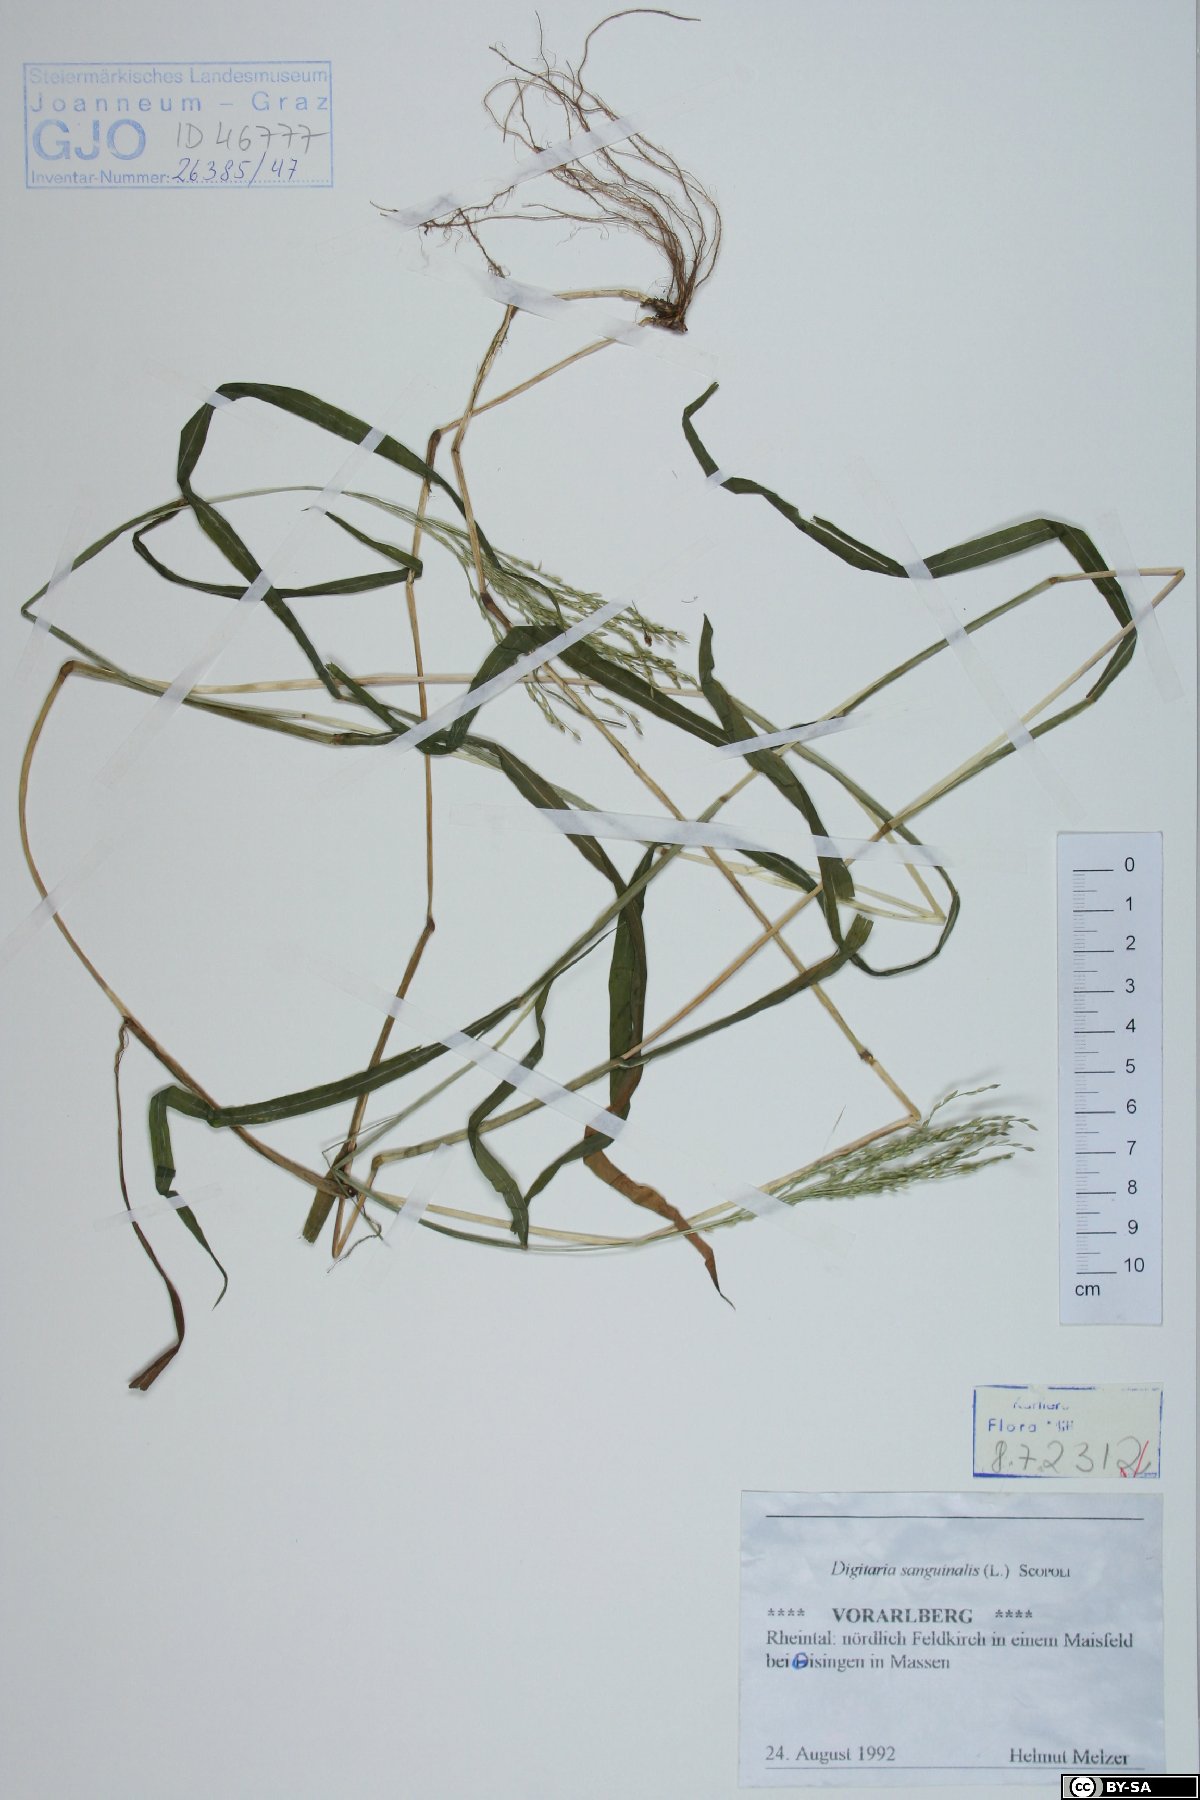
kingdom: Plantae
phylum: Tracheophyta
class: Liliopsida
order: Poales
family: Poaceae
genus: Digitaria
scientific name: Digitaria sanguinalis
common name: Hairy crabgrass
